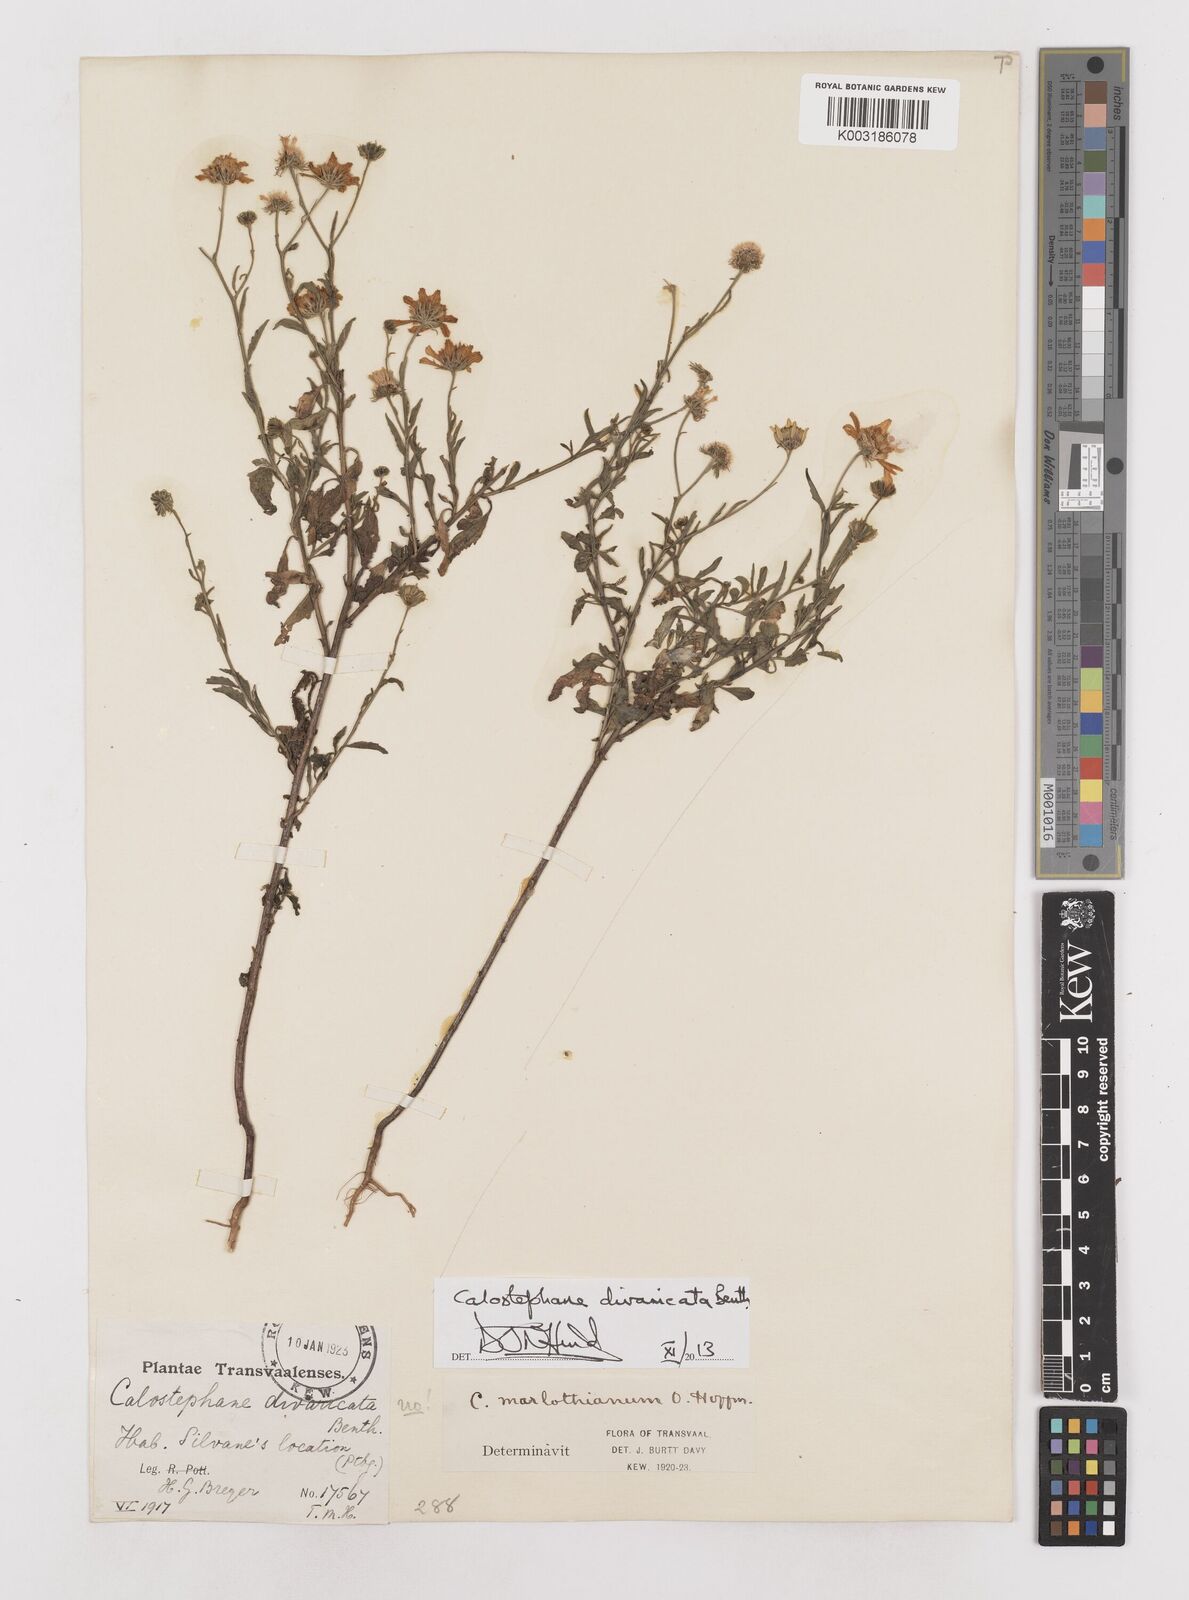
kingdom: Plantae
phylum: Tracheophyta
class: Magnoliopsida
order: Asterales
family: Asteraceae
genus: Calostephane
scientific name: Calostephane divaricata
